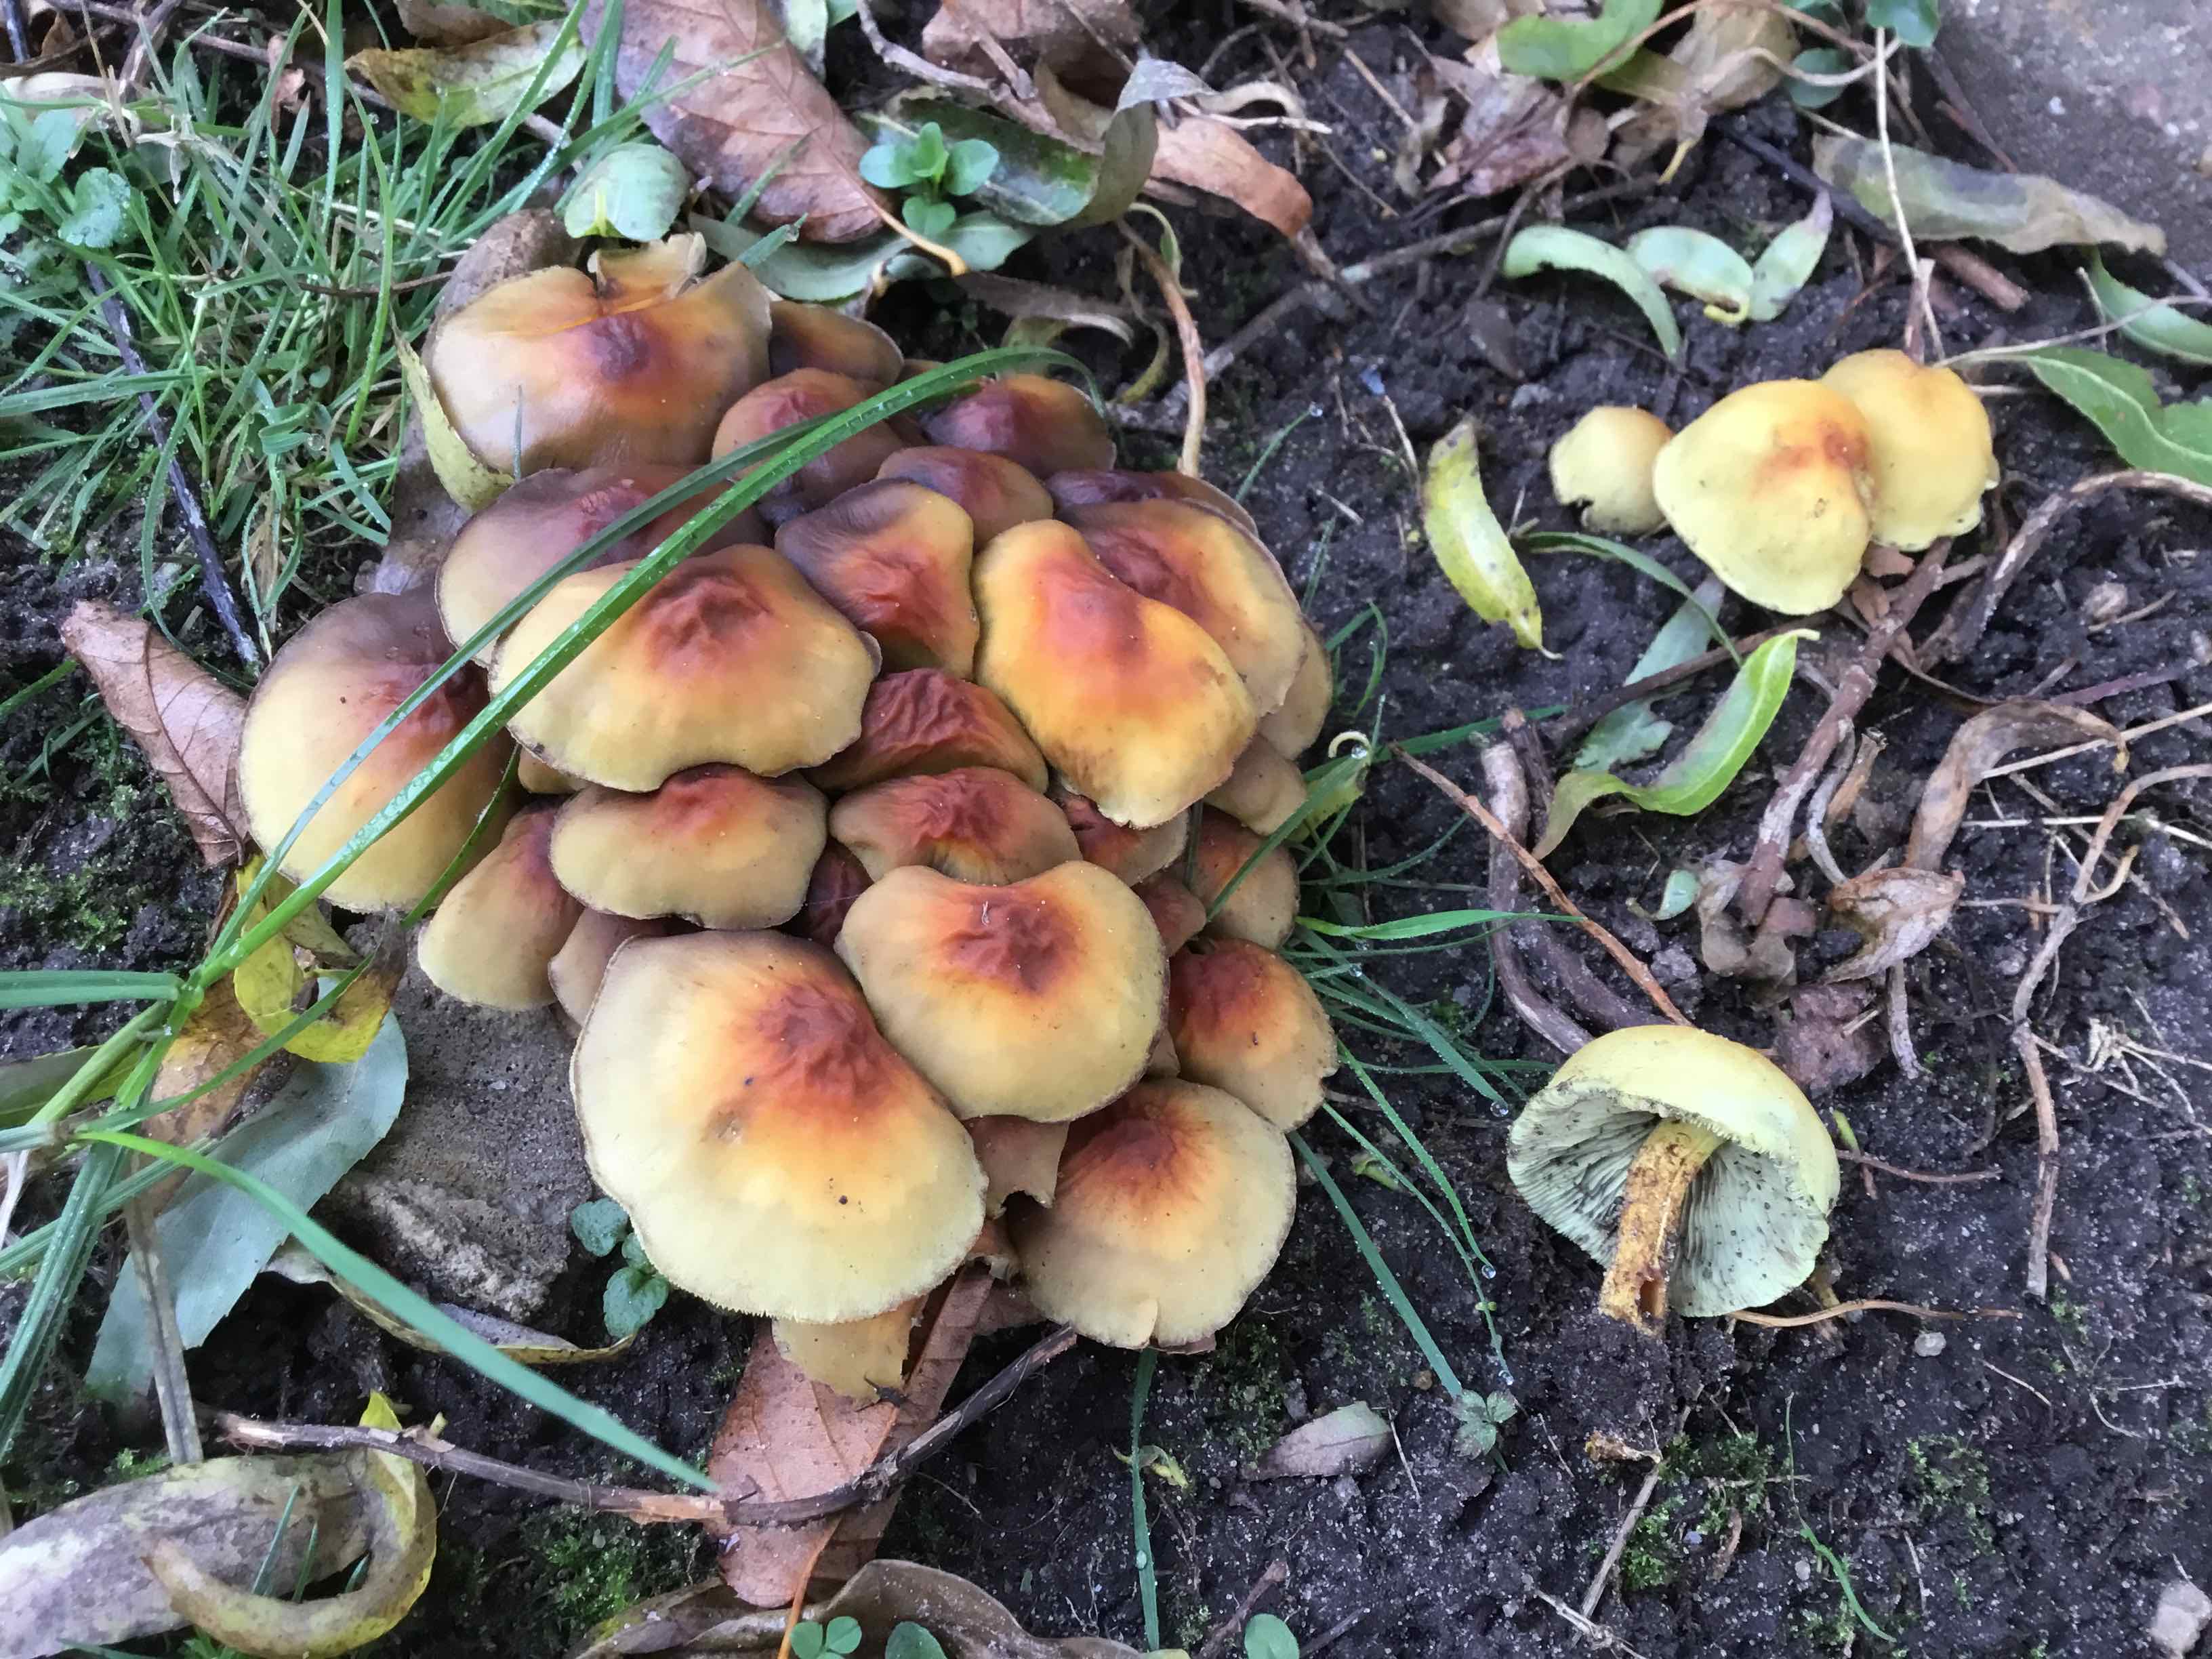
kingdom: Fungi
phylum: Basidiomycota
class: Agaricomycetes
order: Agaricales
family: Strophariaceae
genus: Hypholoma
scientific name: Hypholoma fasciculare
